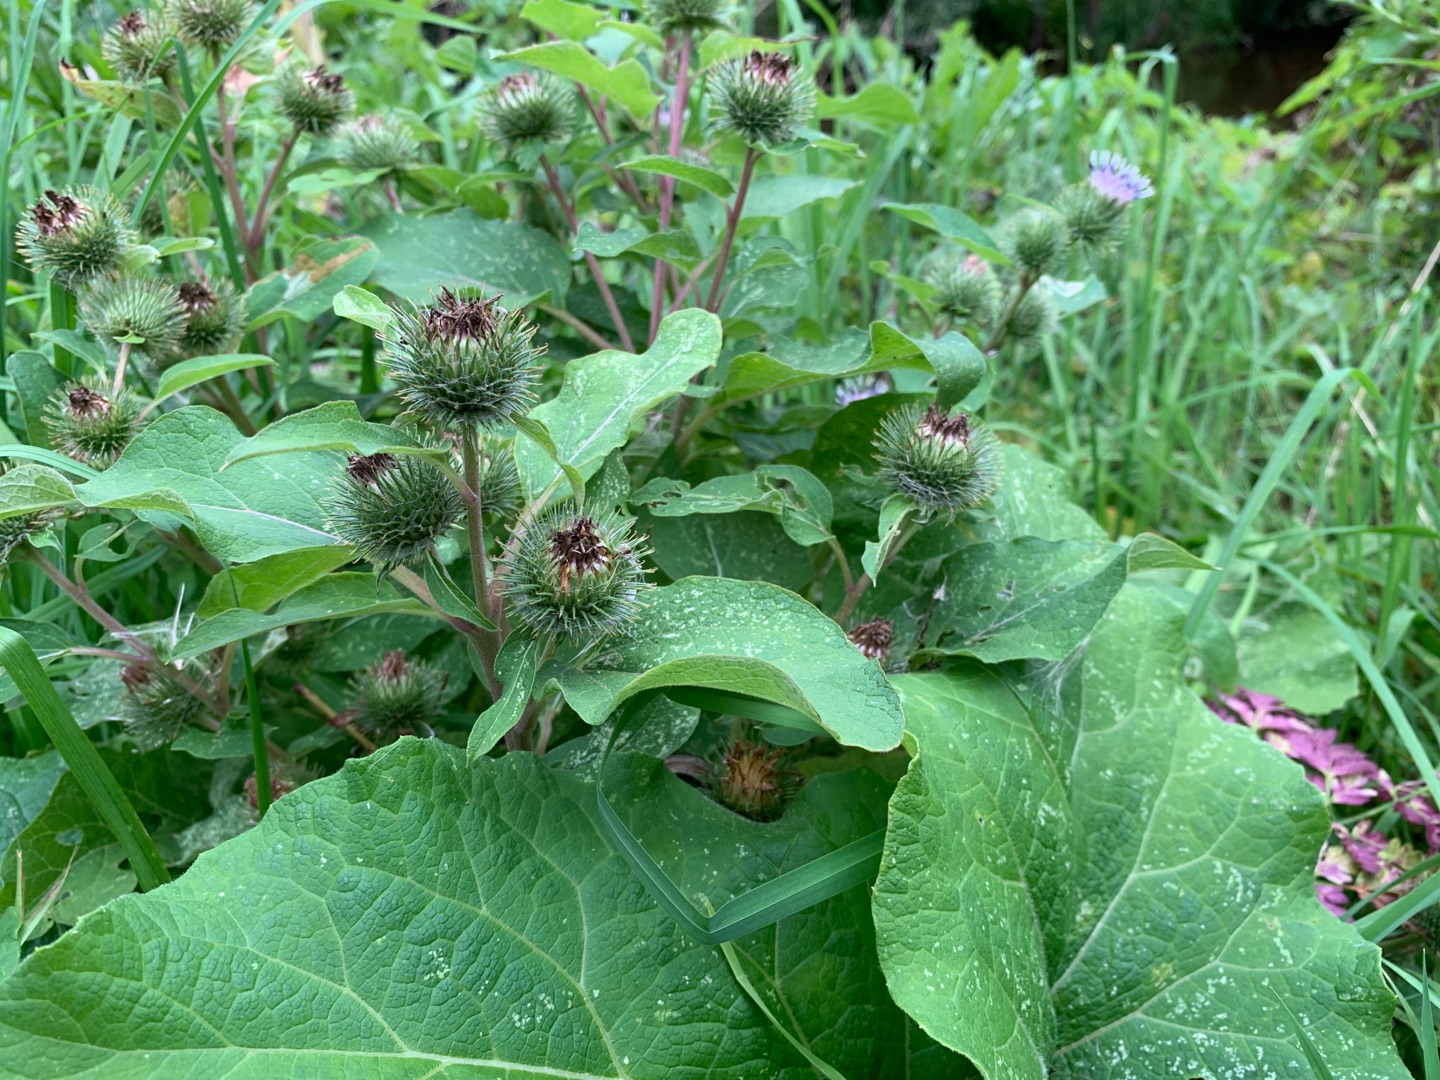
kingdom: Plantae
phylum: Tracheophyta
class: Magnoliopsida
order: Asterales
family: Asteraceae
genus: Arctium
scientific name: Arctium minus
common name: Liden burre
